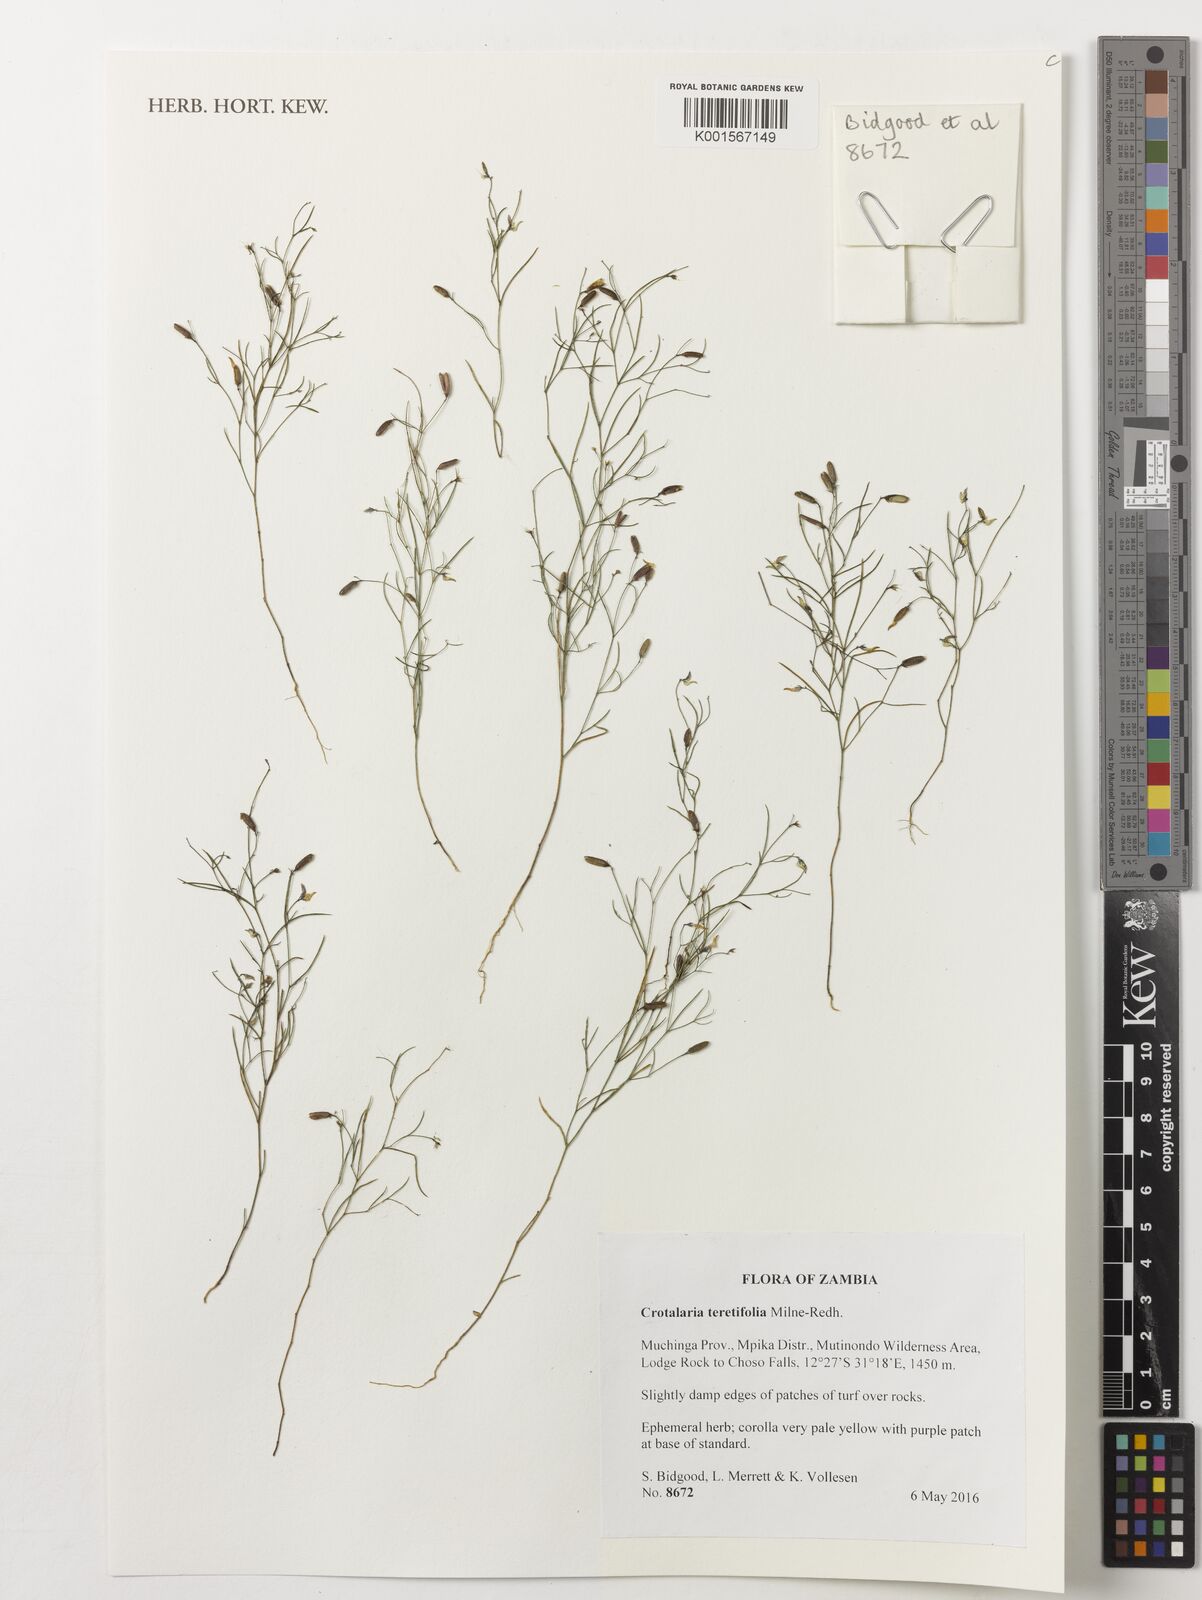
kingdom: Plantae
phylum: Tracheophyta
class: Magnoliopsida
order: Fabales
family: Fabaceae
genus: Crotalaria
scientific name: Crotalaria teretifolia
